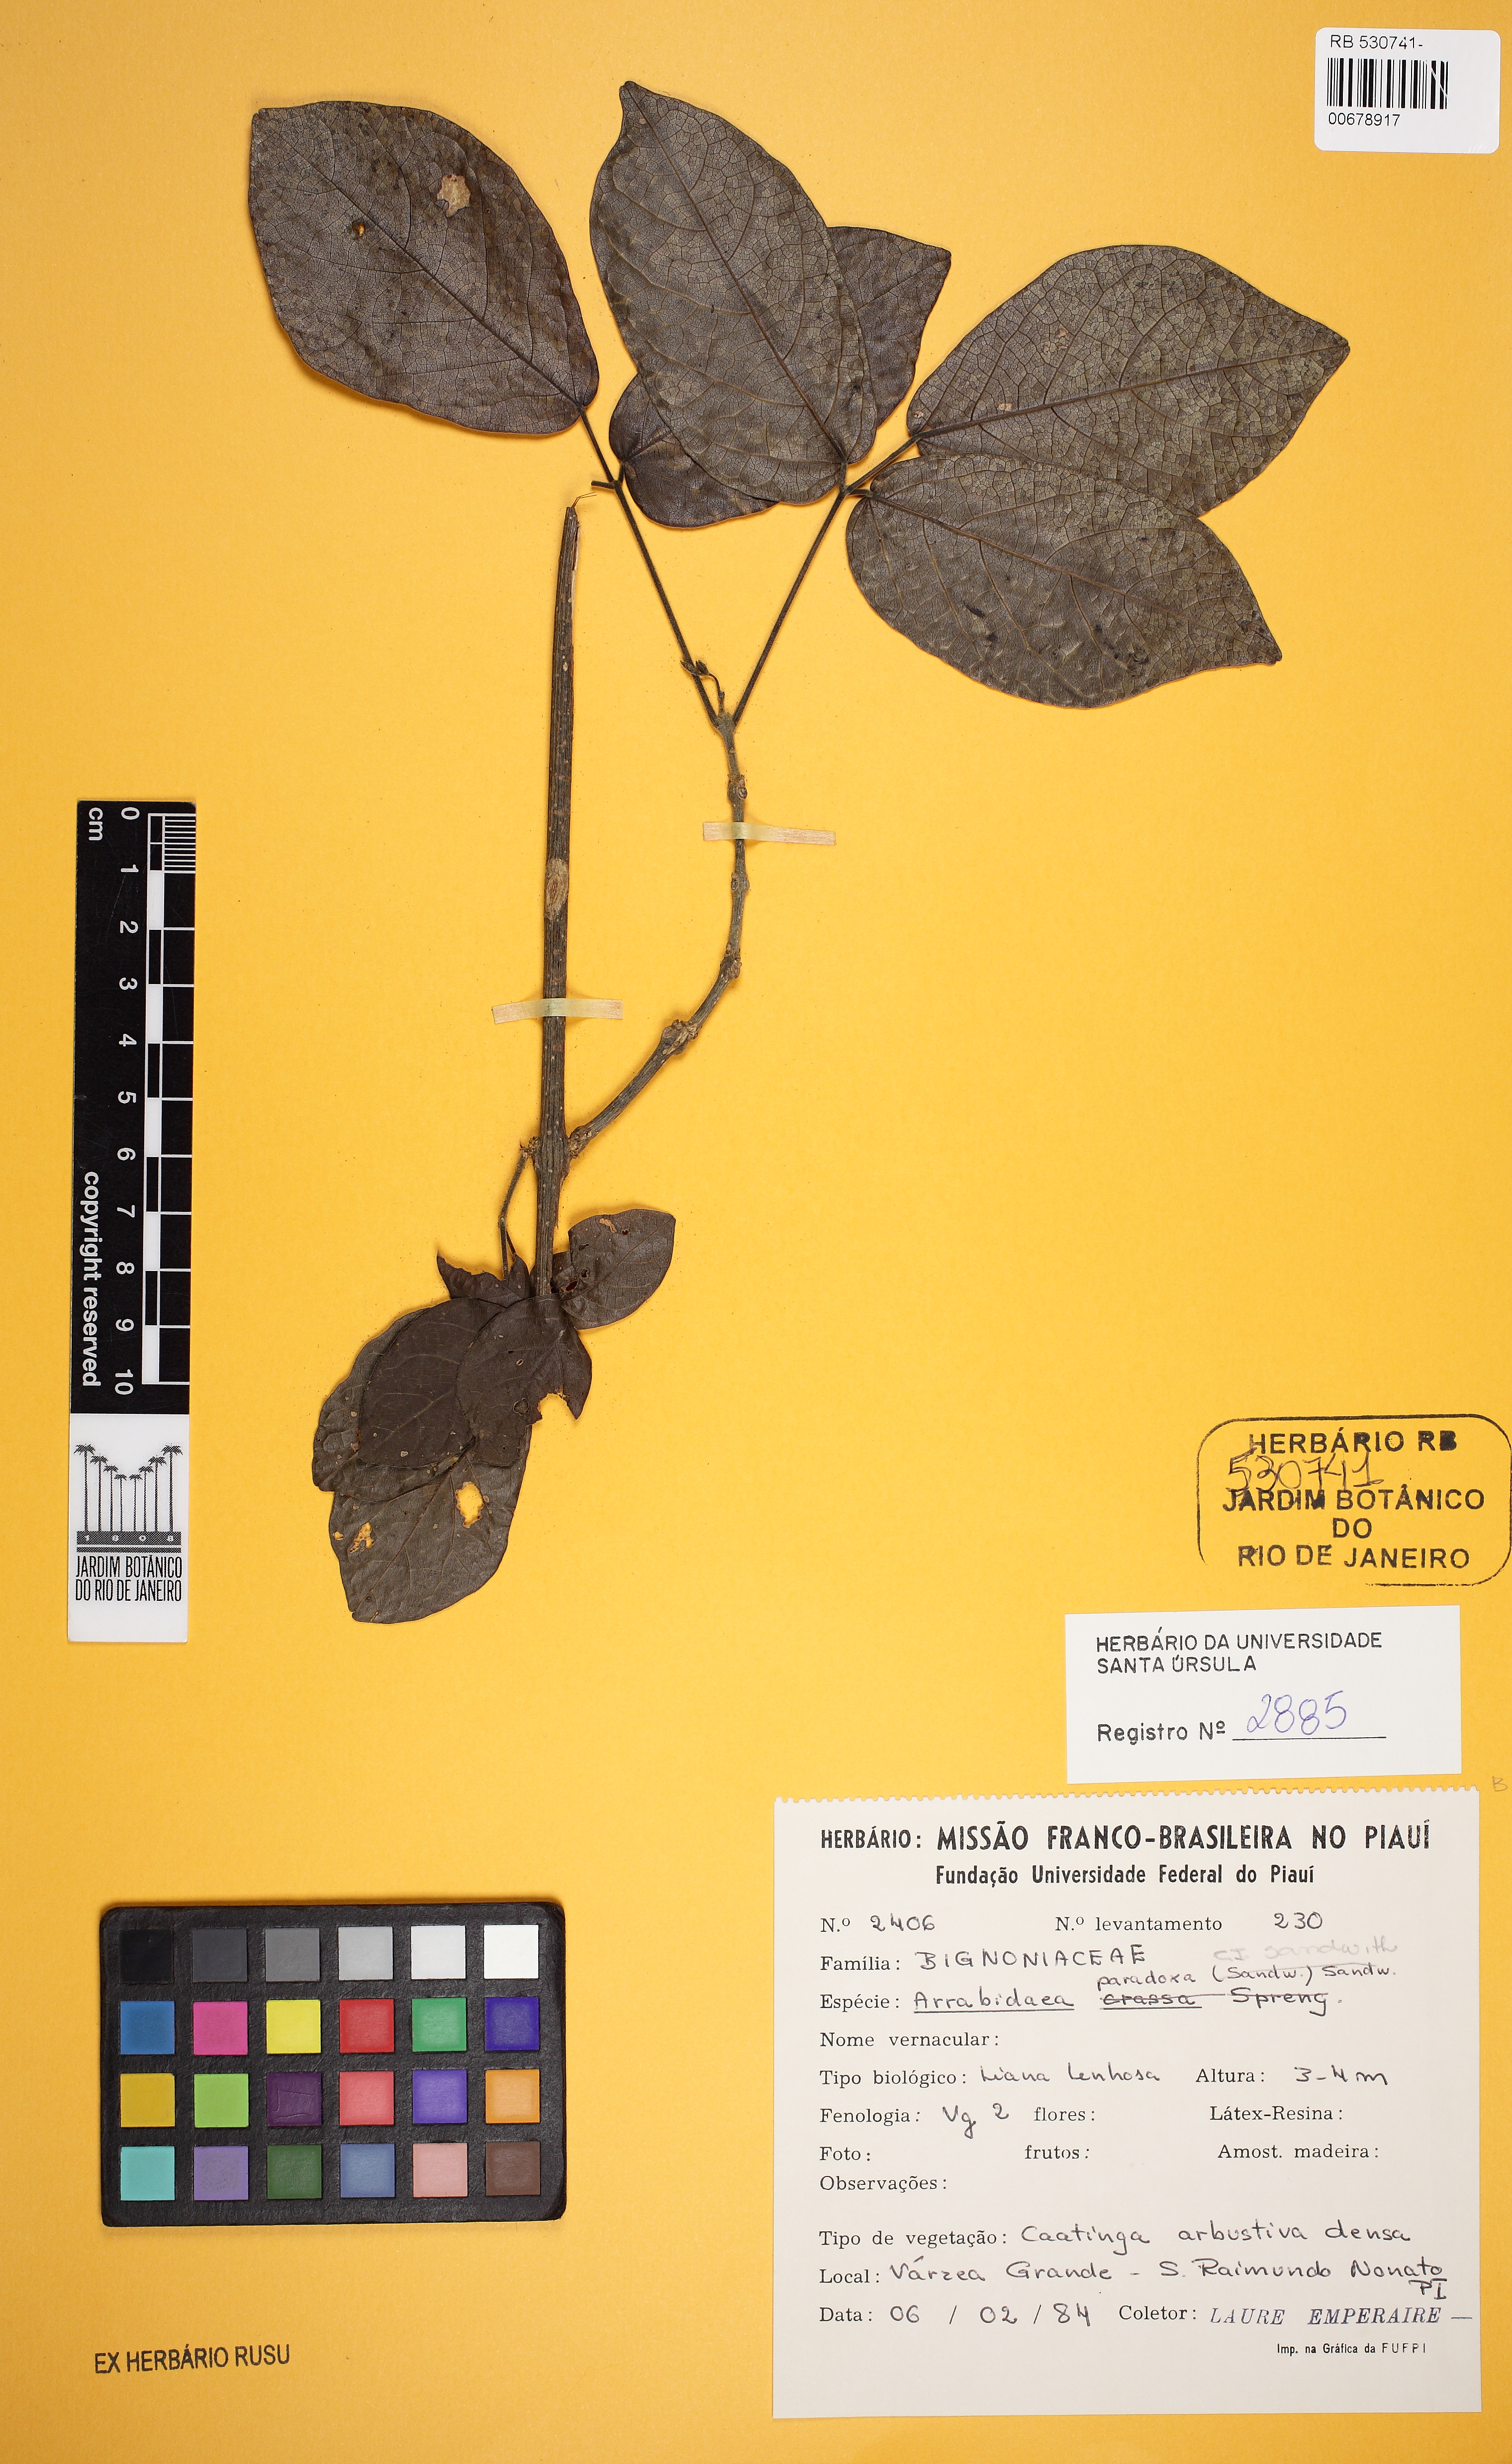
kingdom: Plantae
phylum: Tracheophyta
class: Magnoliopsida
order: Lamiales
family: Bignoniaceae
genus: Tanaecium
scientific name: Tanaecium paradoxum
